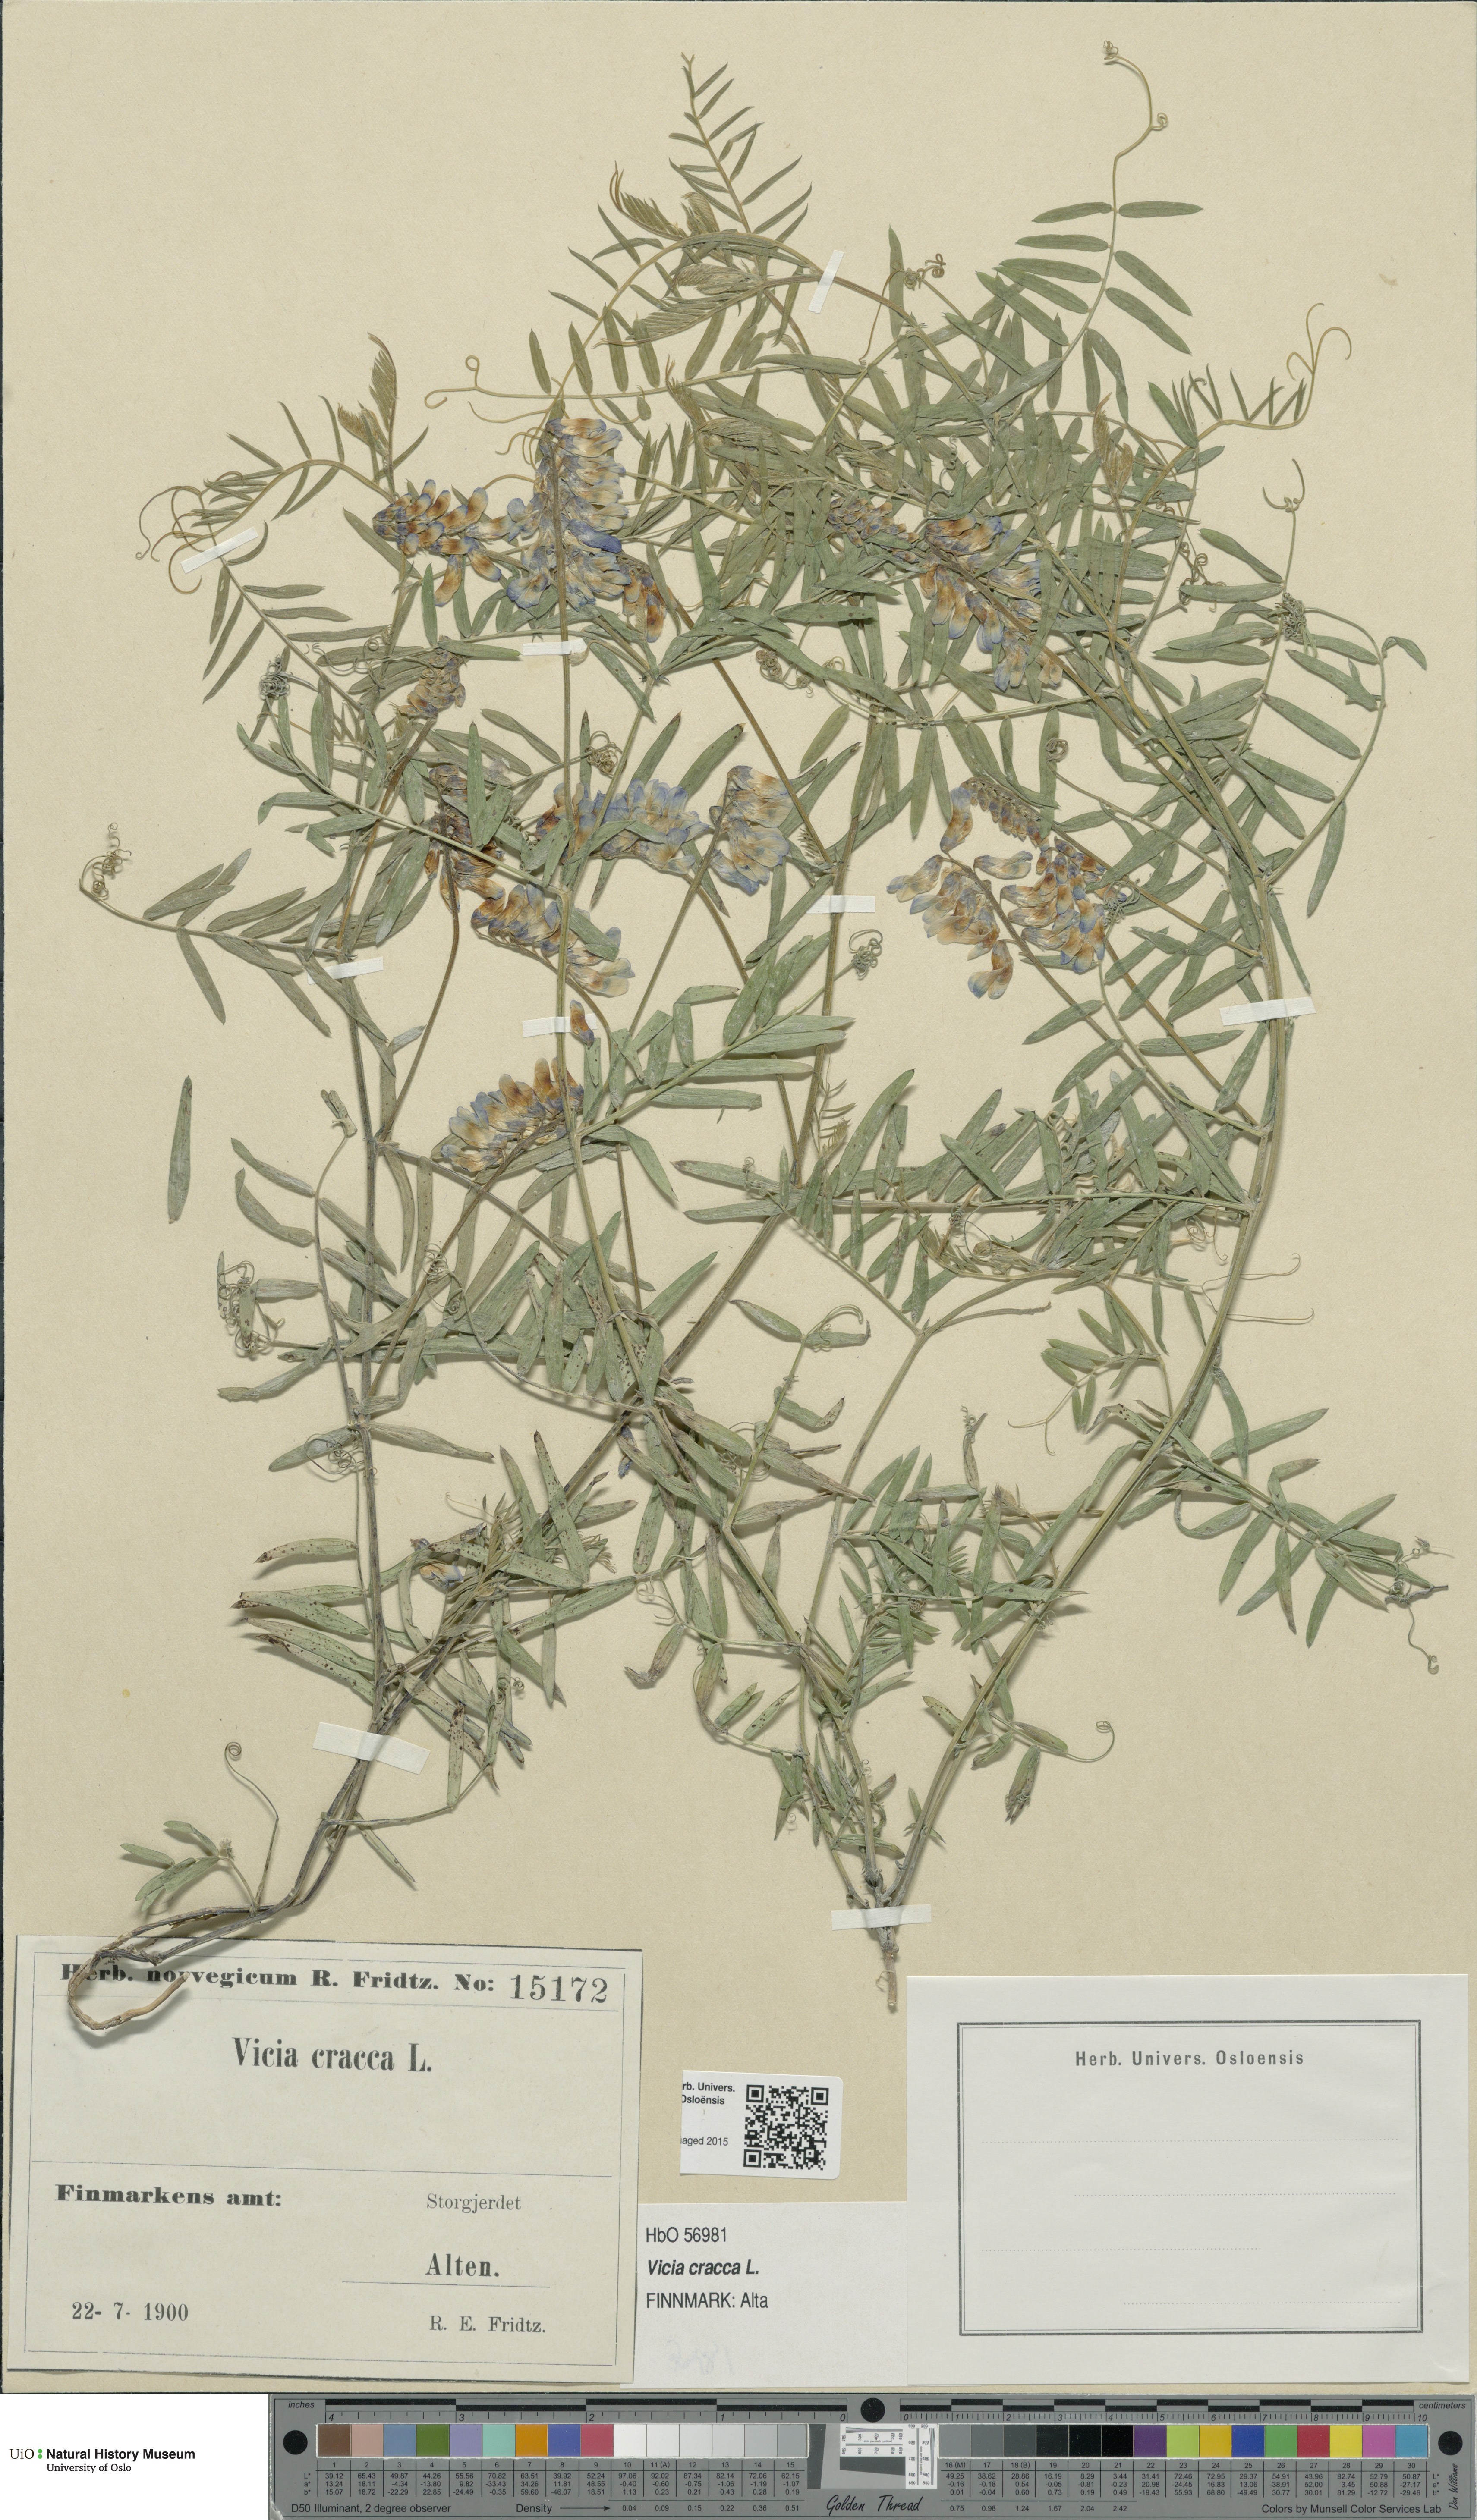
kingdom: Plantae
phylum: Tracheophyta
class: Magnoliopsida
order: Fabales
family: Fabaceae
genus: Vicia
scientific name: Vicia cracca
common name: Bird vetch
